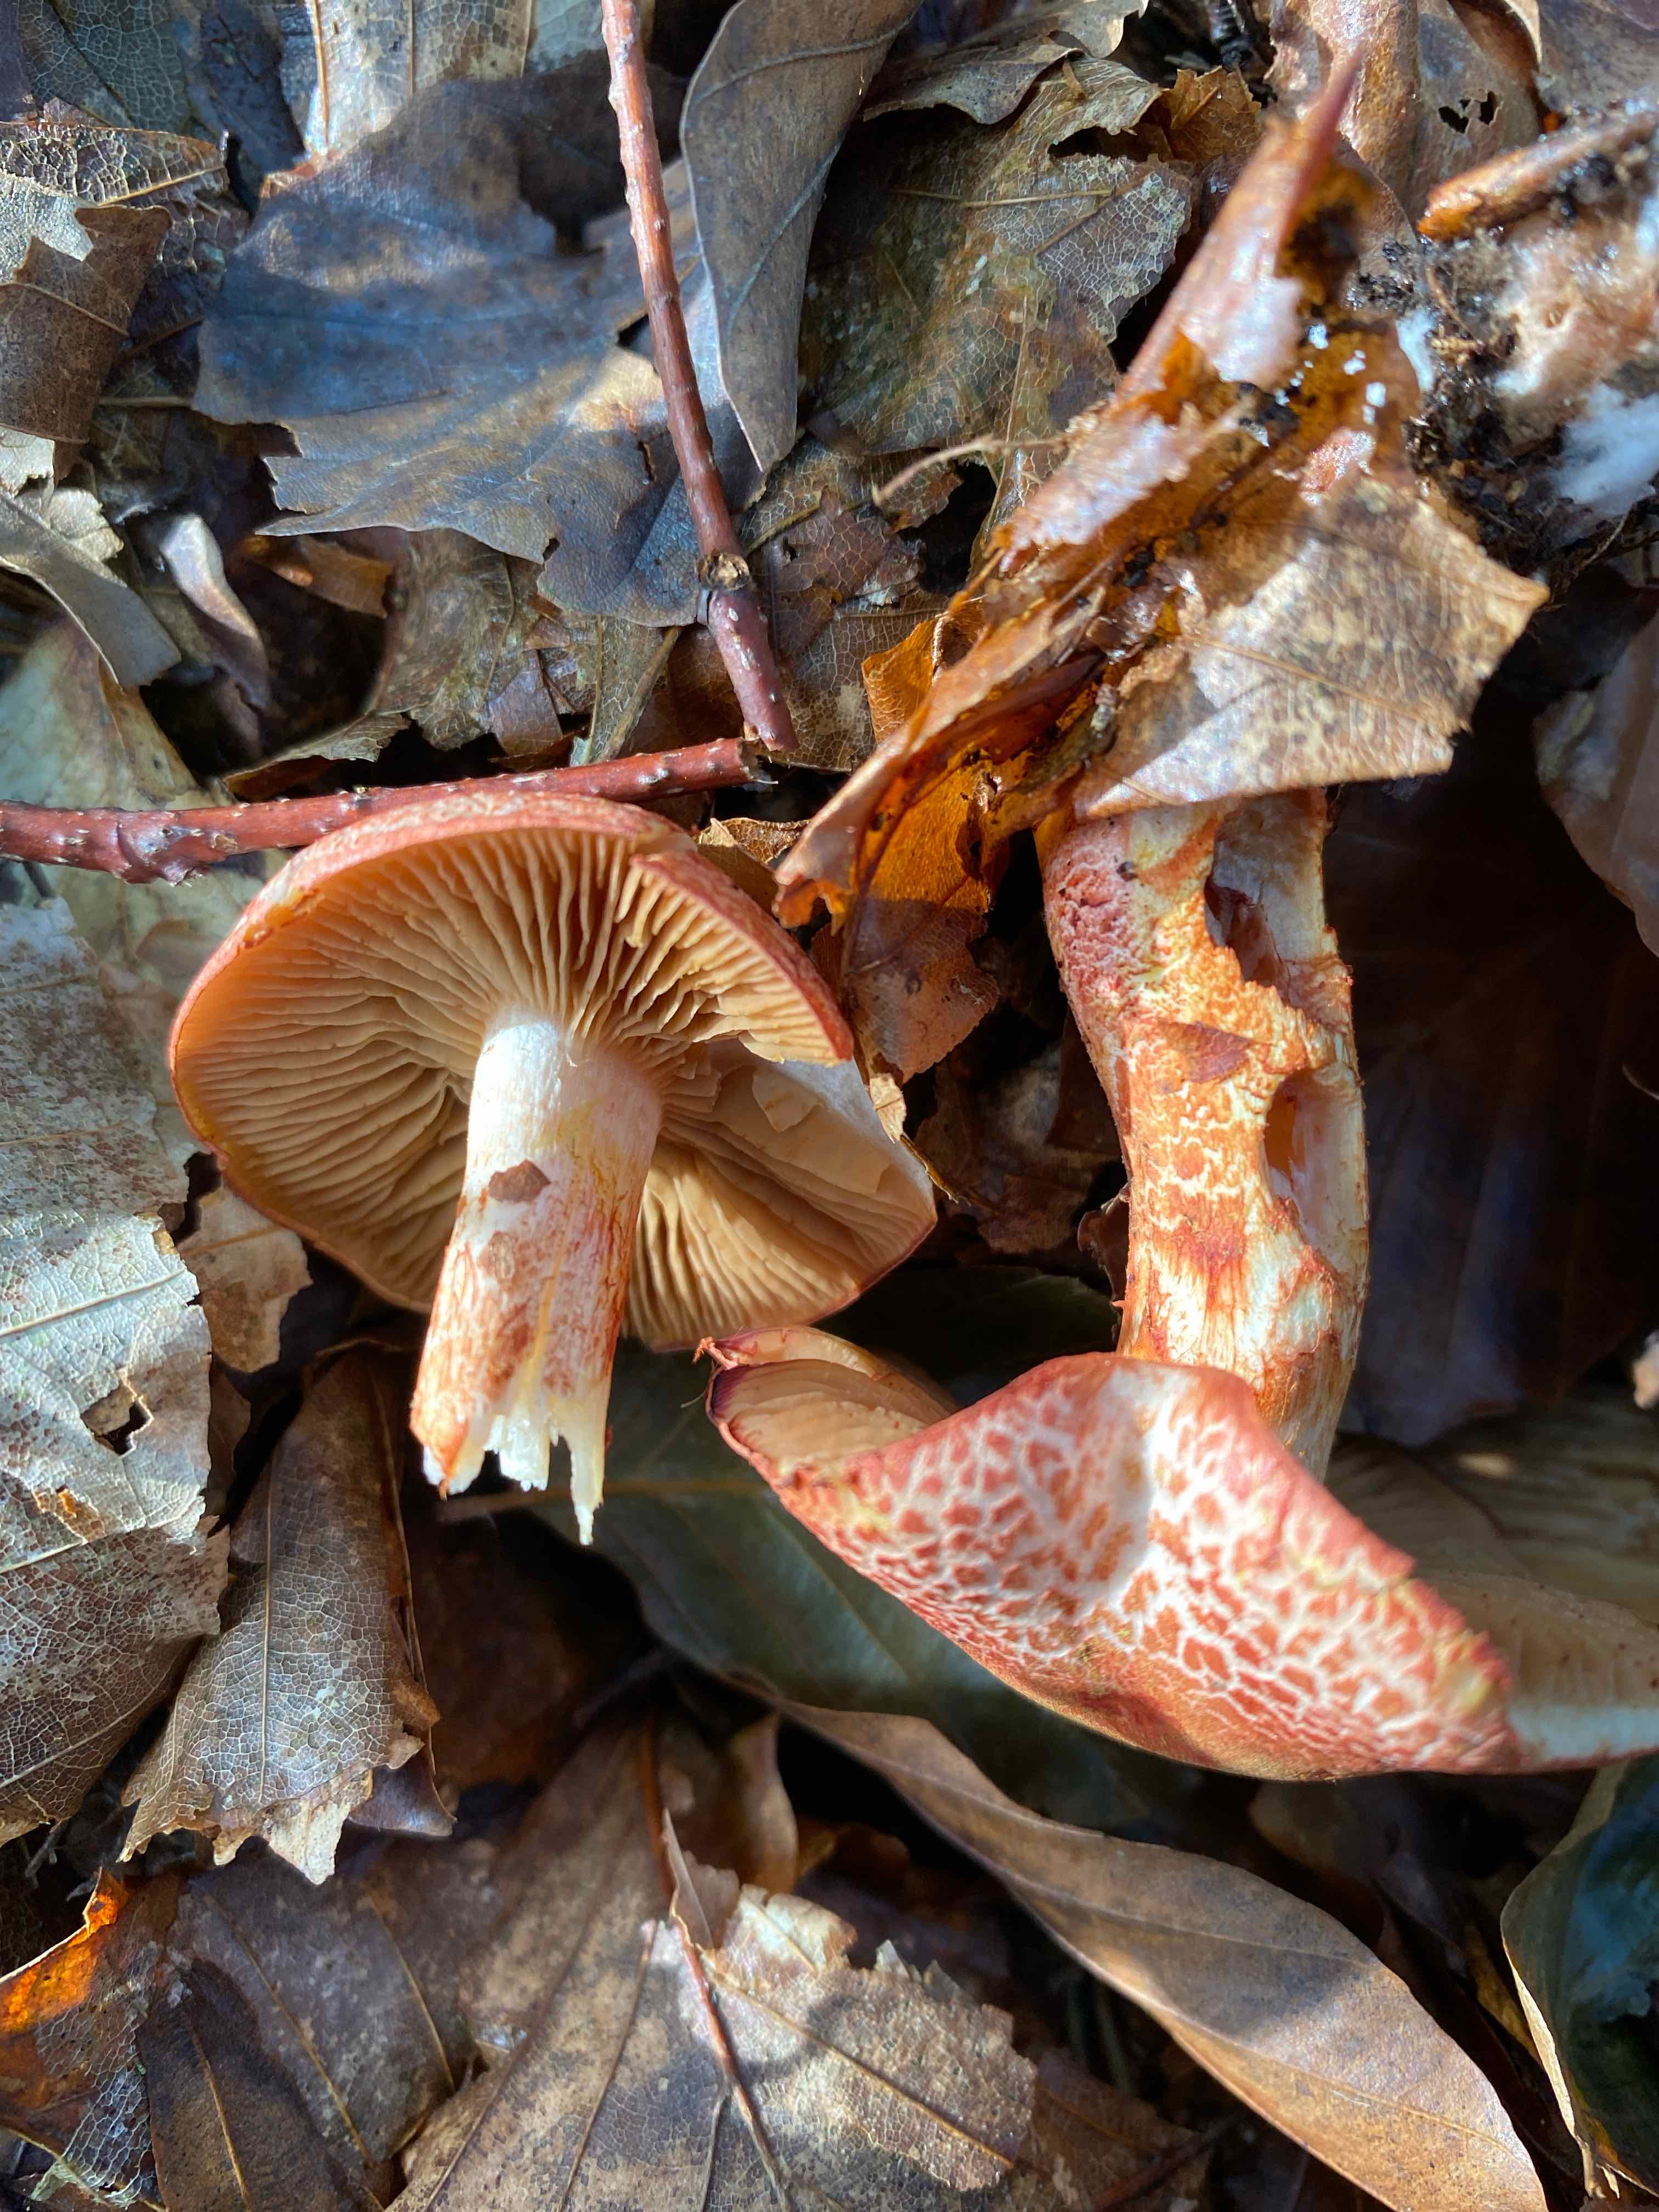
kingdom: Fungi
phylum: Basidiomycota
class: Agaricomycetes
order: Agaricales
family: Cortinariaceae
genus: Cortinarius
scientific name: Cortinarius bolaris
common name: cinnoberskællet slørhat
